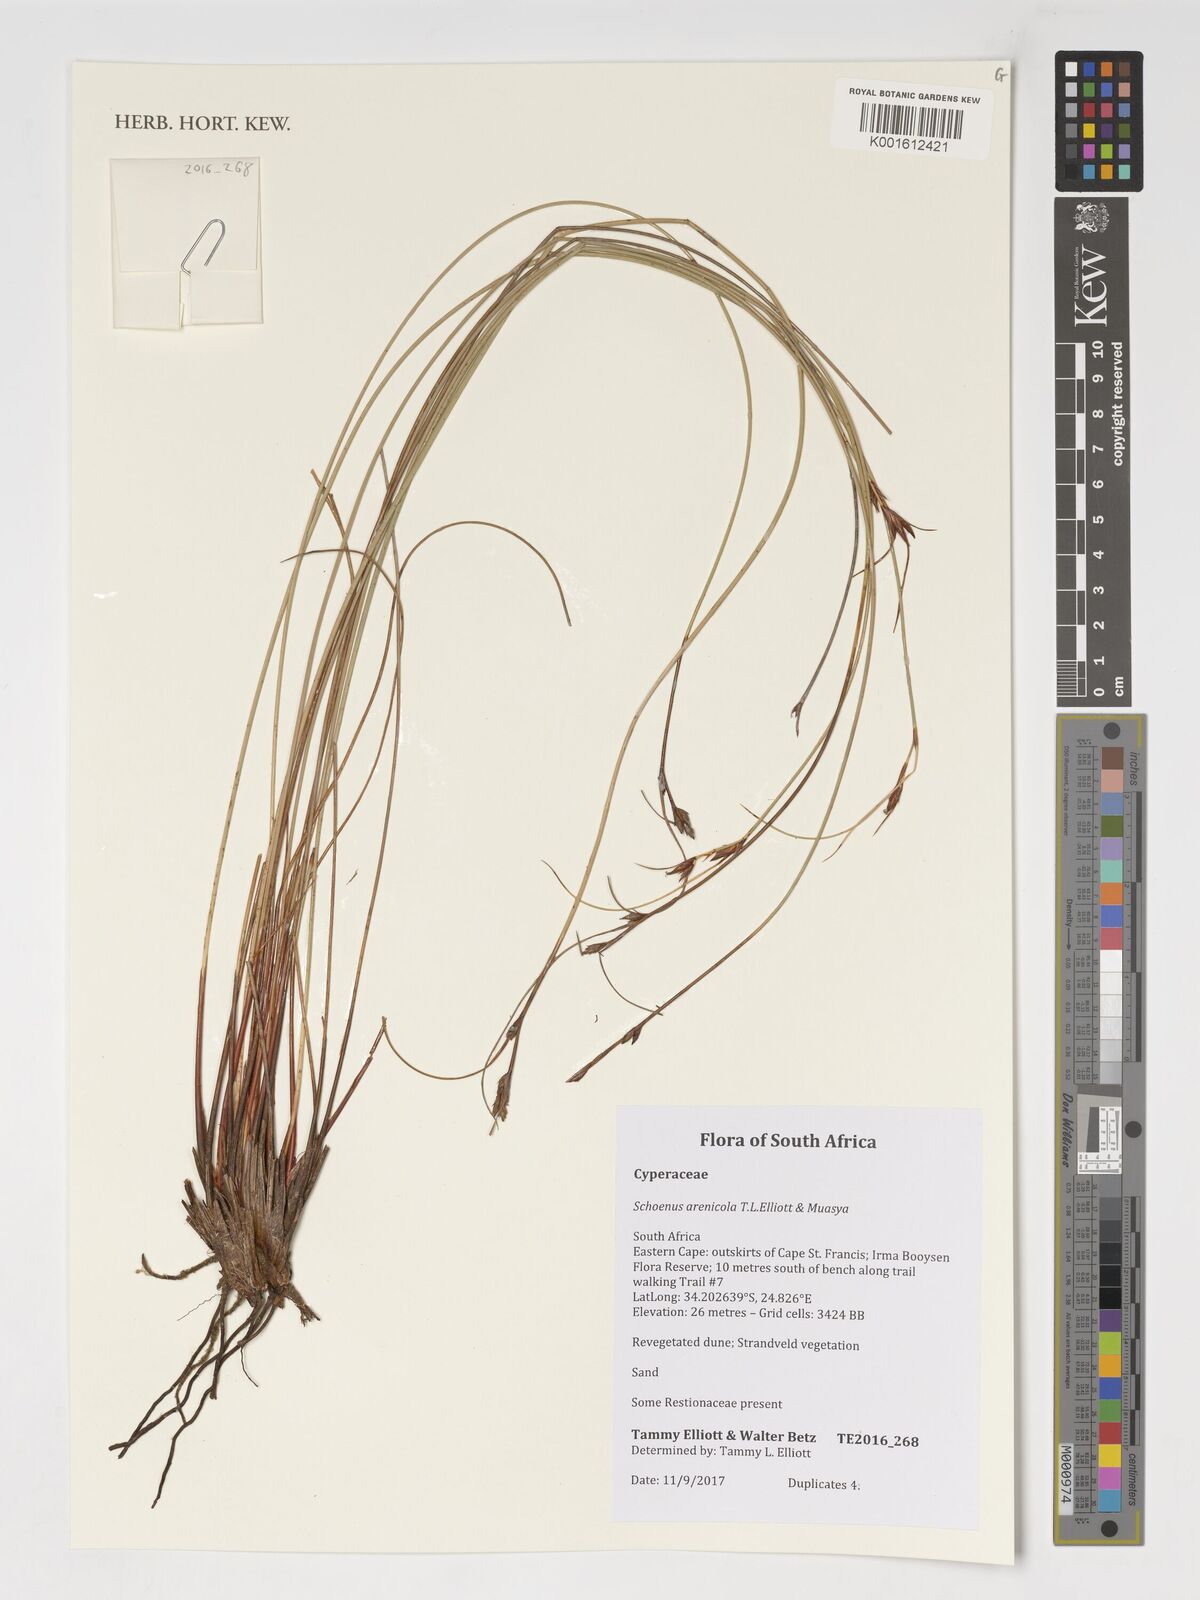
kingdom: Plantae
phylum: Tracheophyta
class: Liliopsida
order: Poales
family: Cyperaceae
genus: Schoenus
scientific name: Schoenus arenicola
